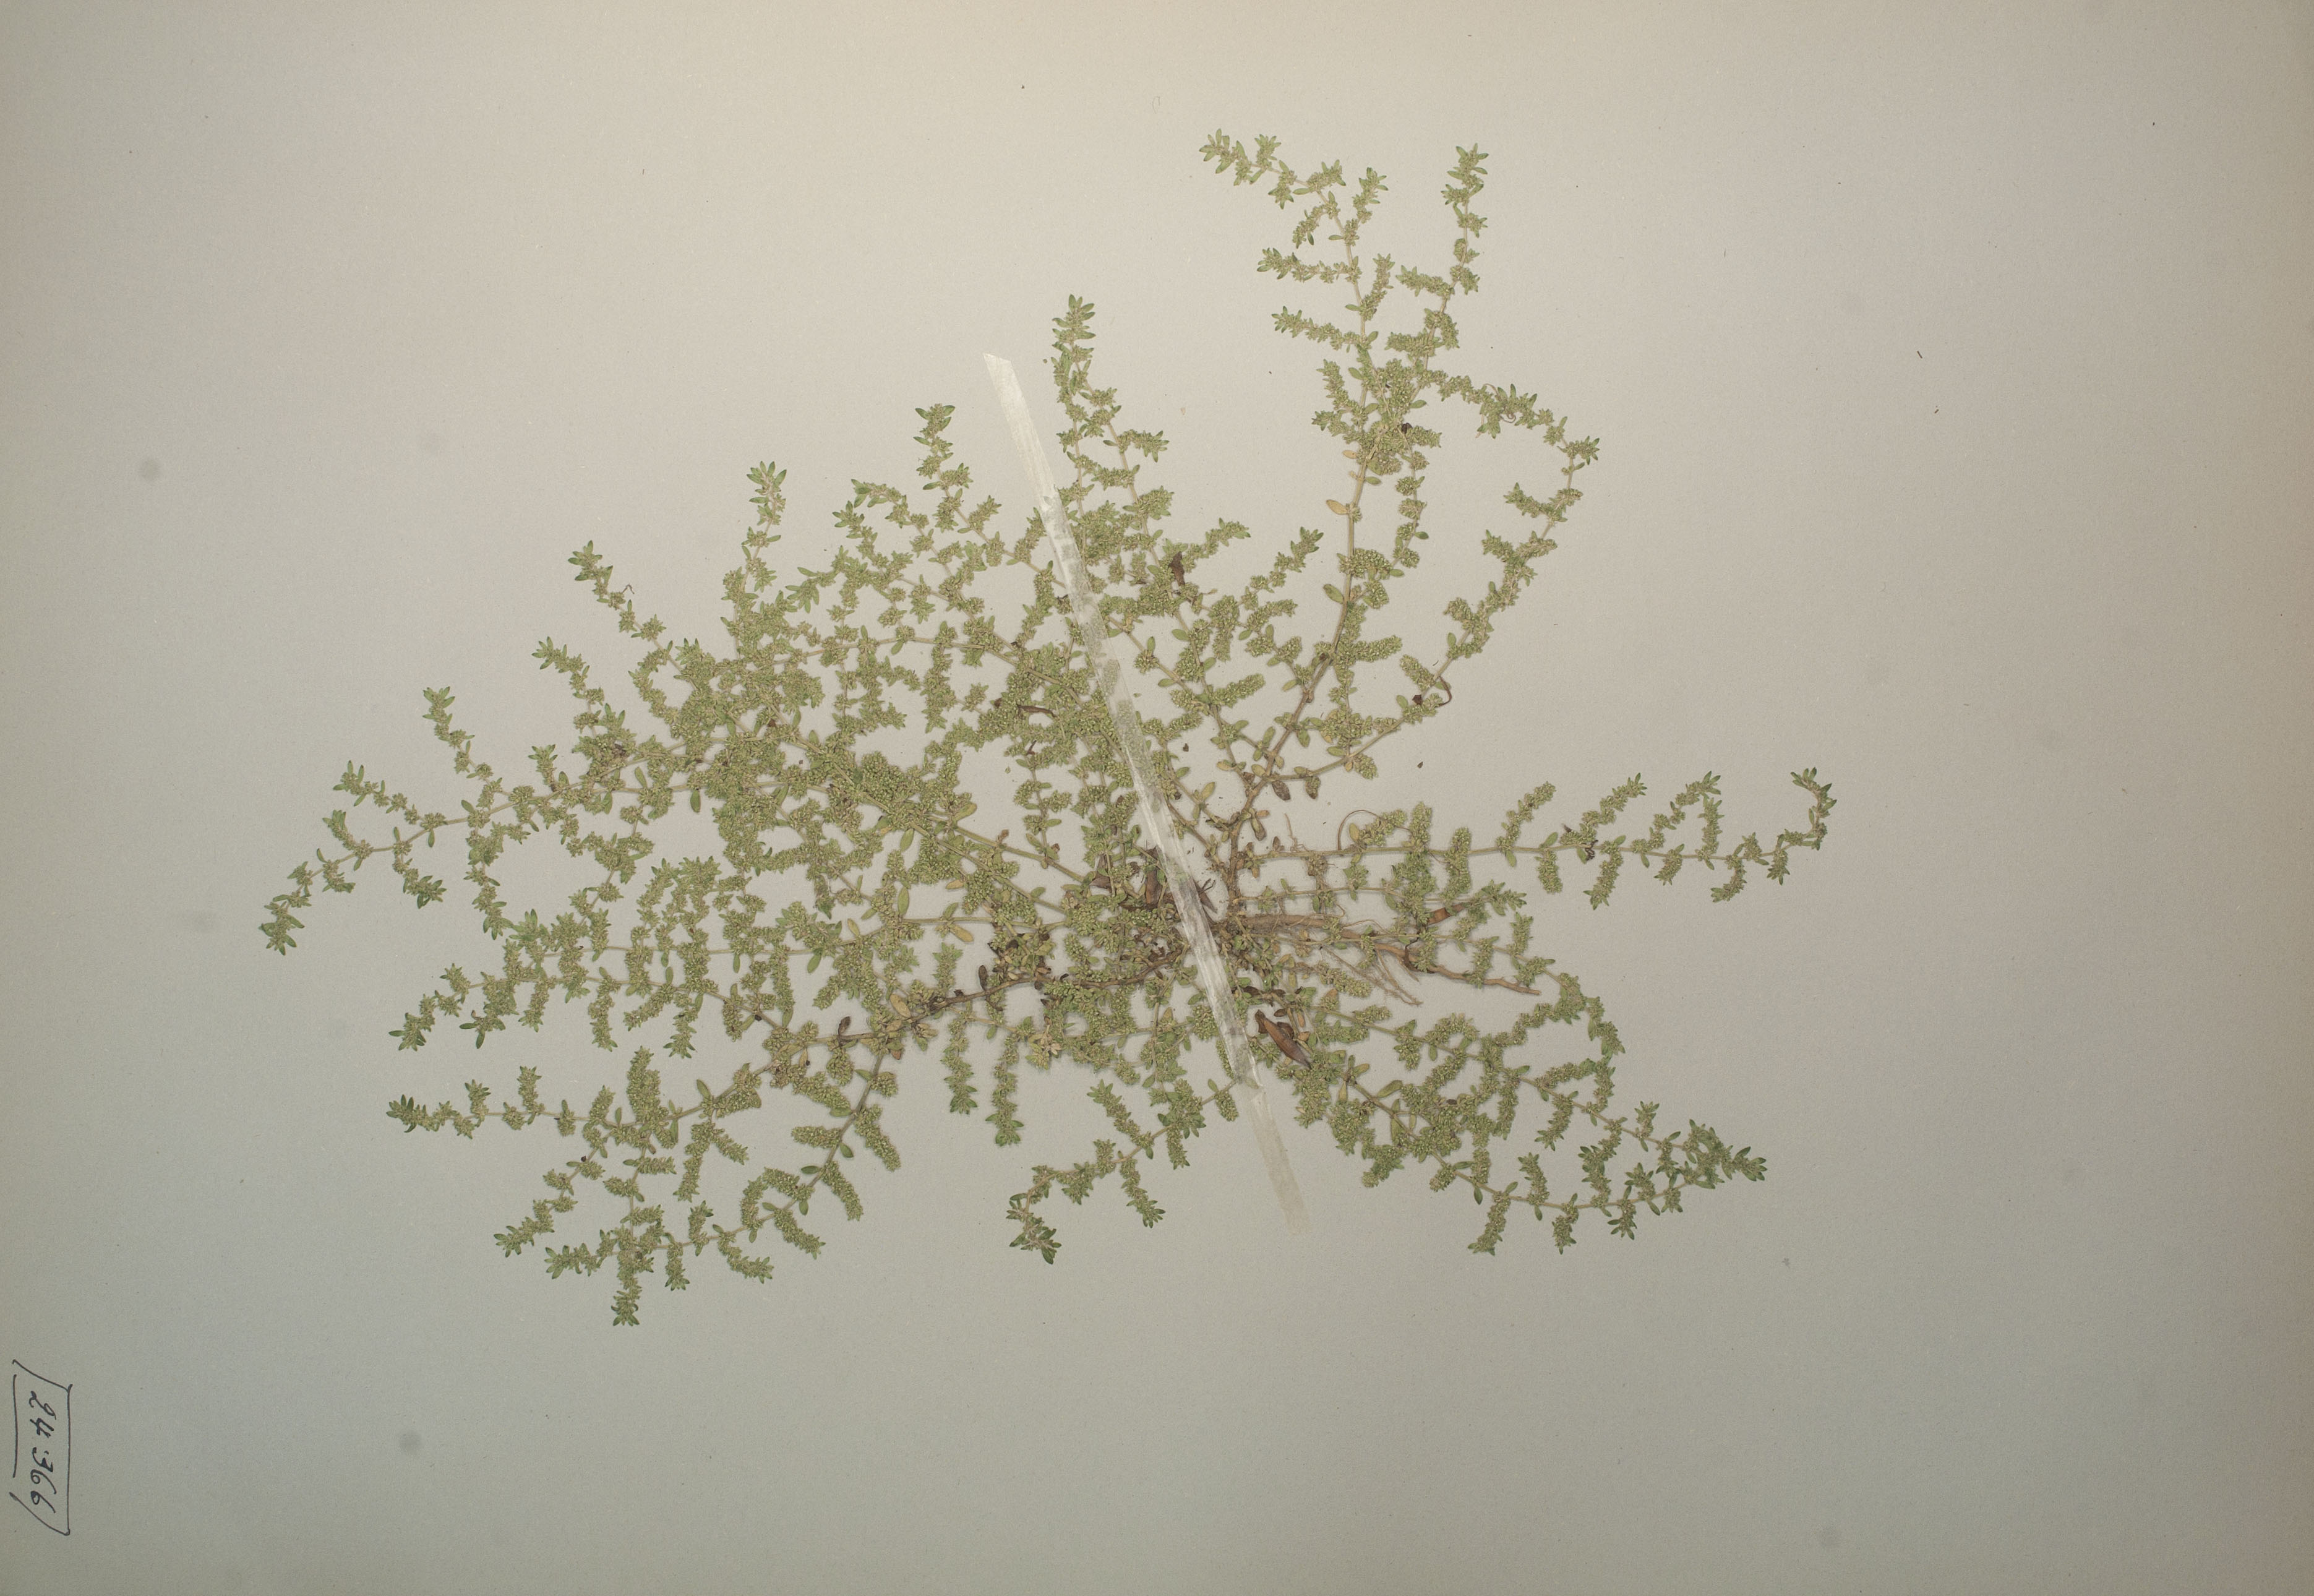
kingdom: Plantae
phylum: Tracheophyta
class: Magnoliopsida
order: Caryophyllales
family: Caryophyllaceae
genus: Herniaria
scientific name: Herniaria glabra
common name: Smooth rupturewort
